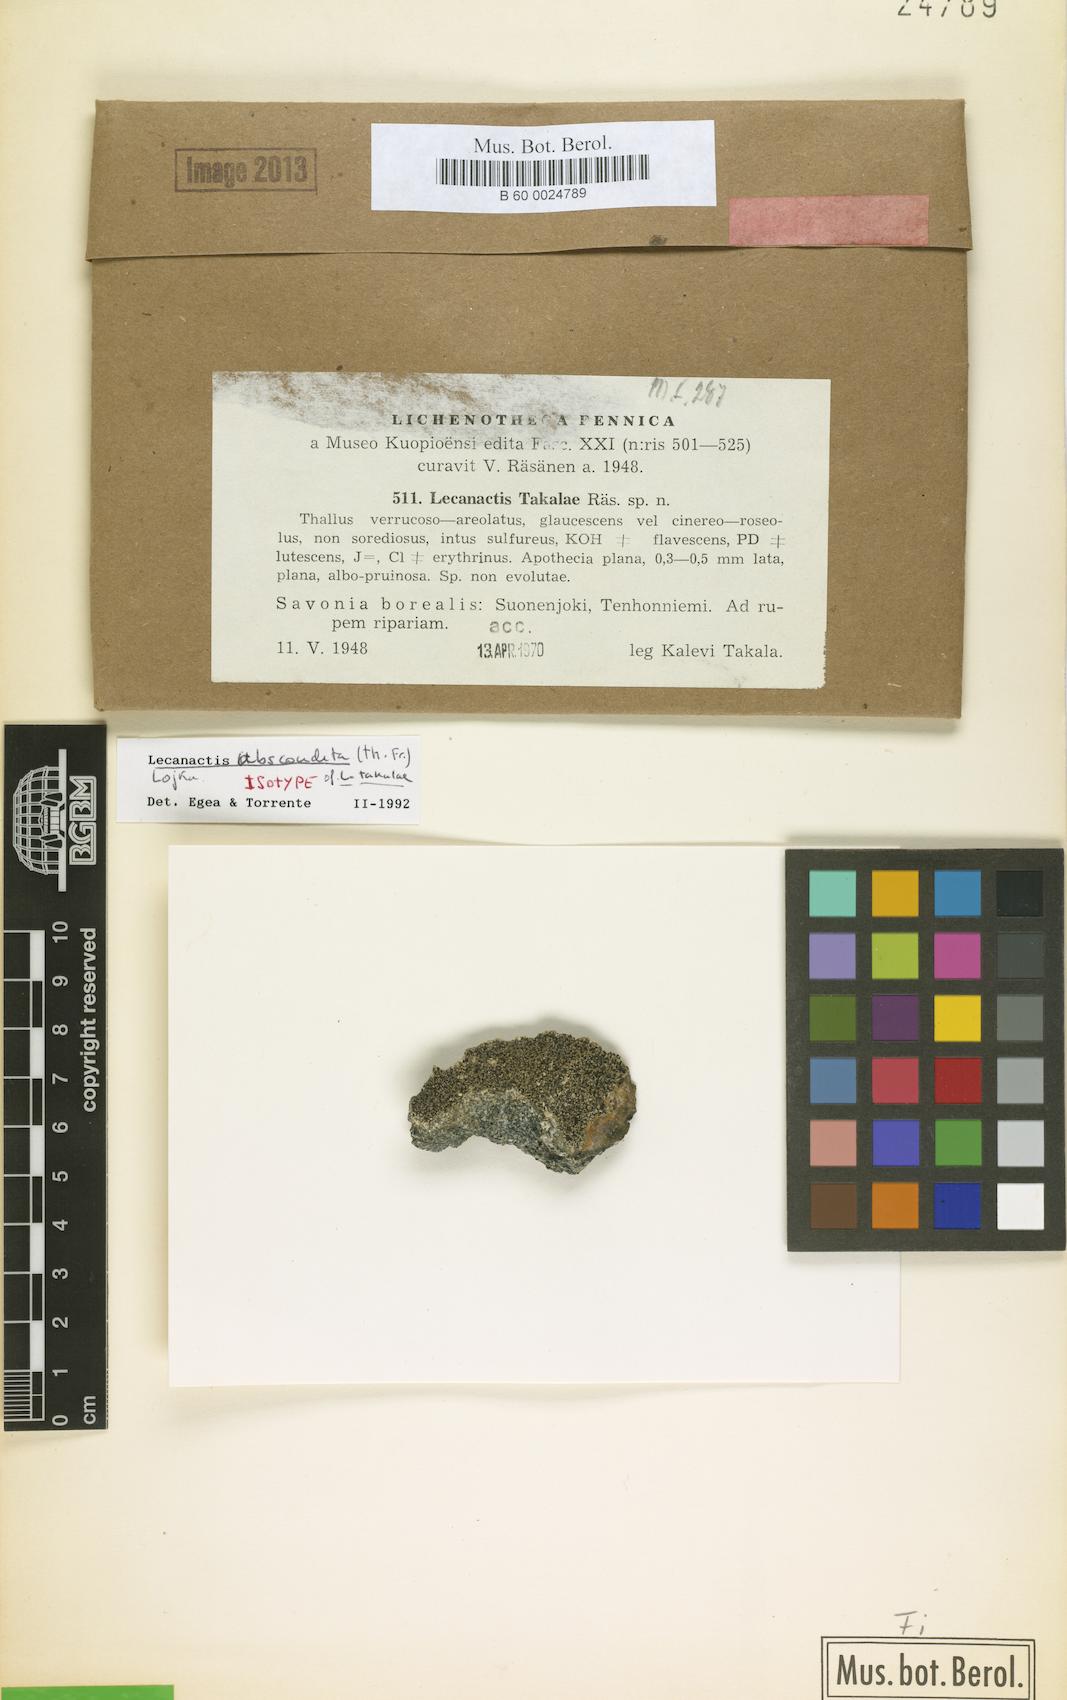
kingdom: Fungi
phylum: Ascomycota
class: Arthoniomycetes
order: Arthoniales
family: Lecanographaceae
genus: Lecanographa
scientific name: Lecanographa abscondita
